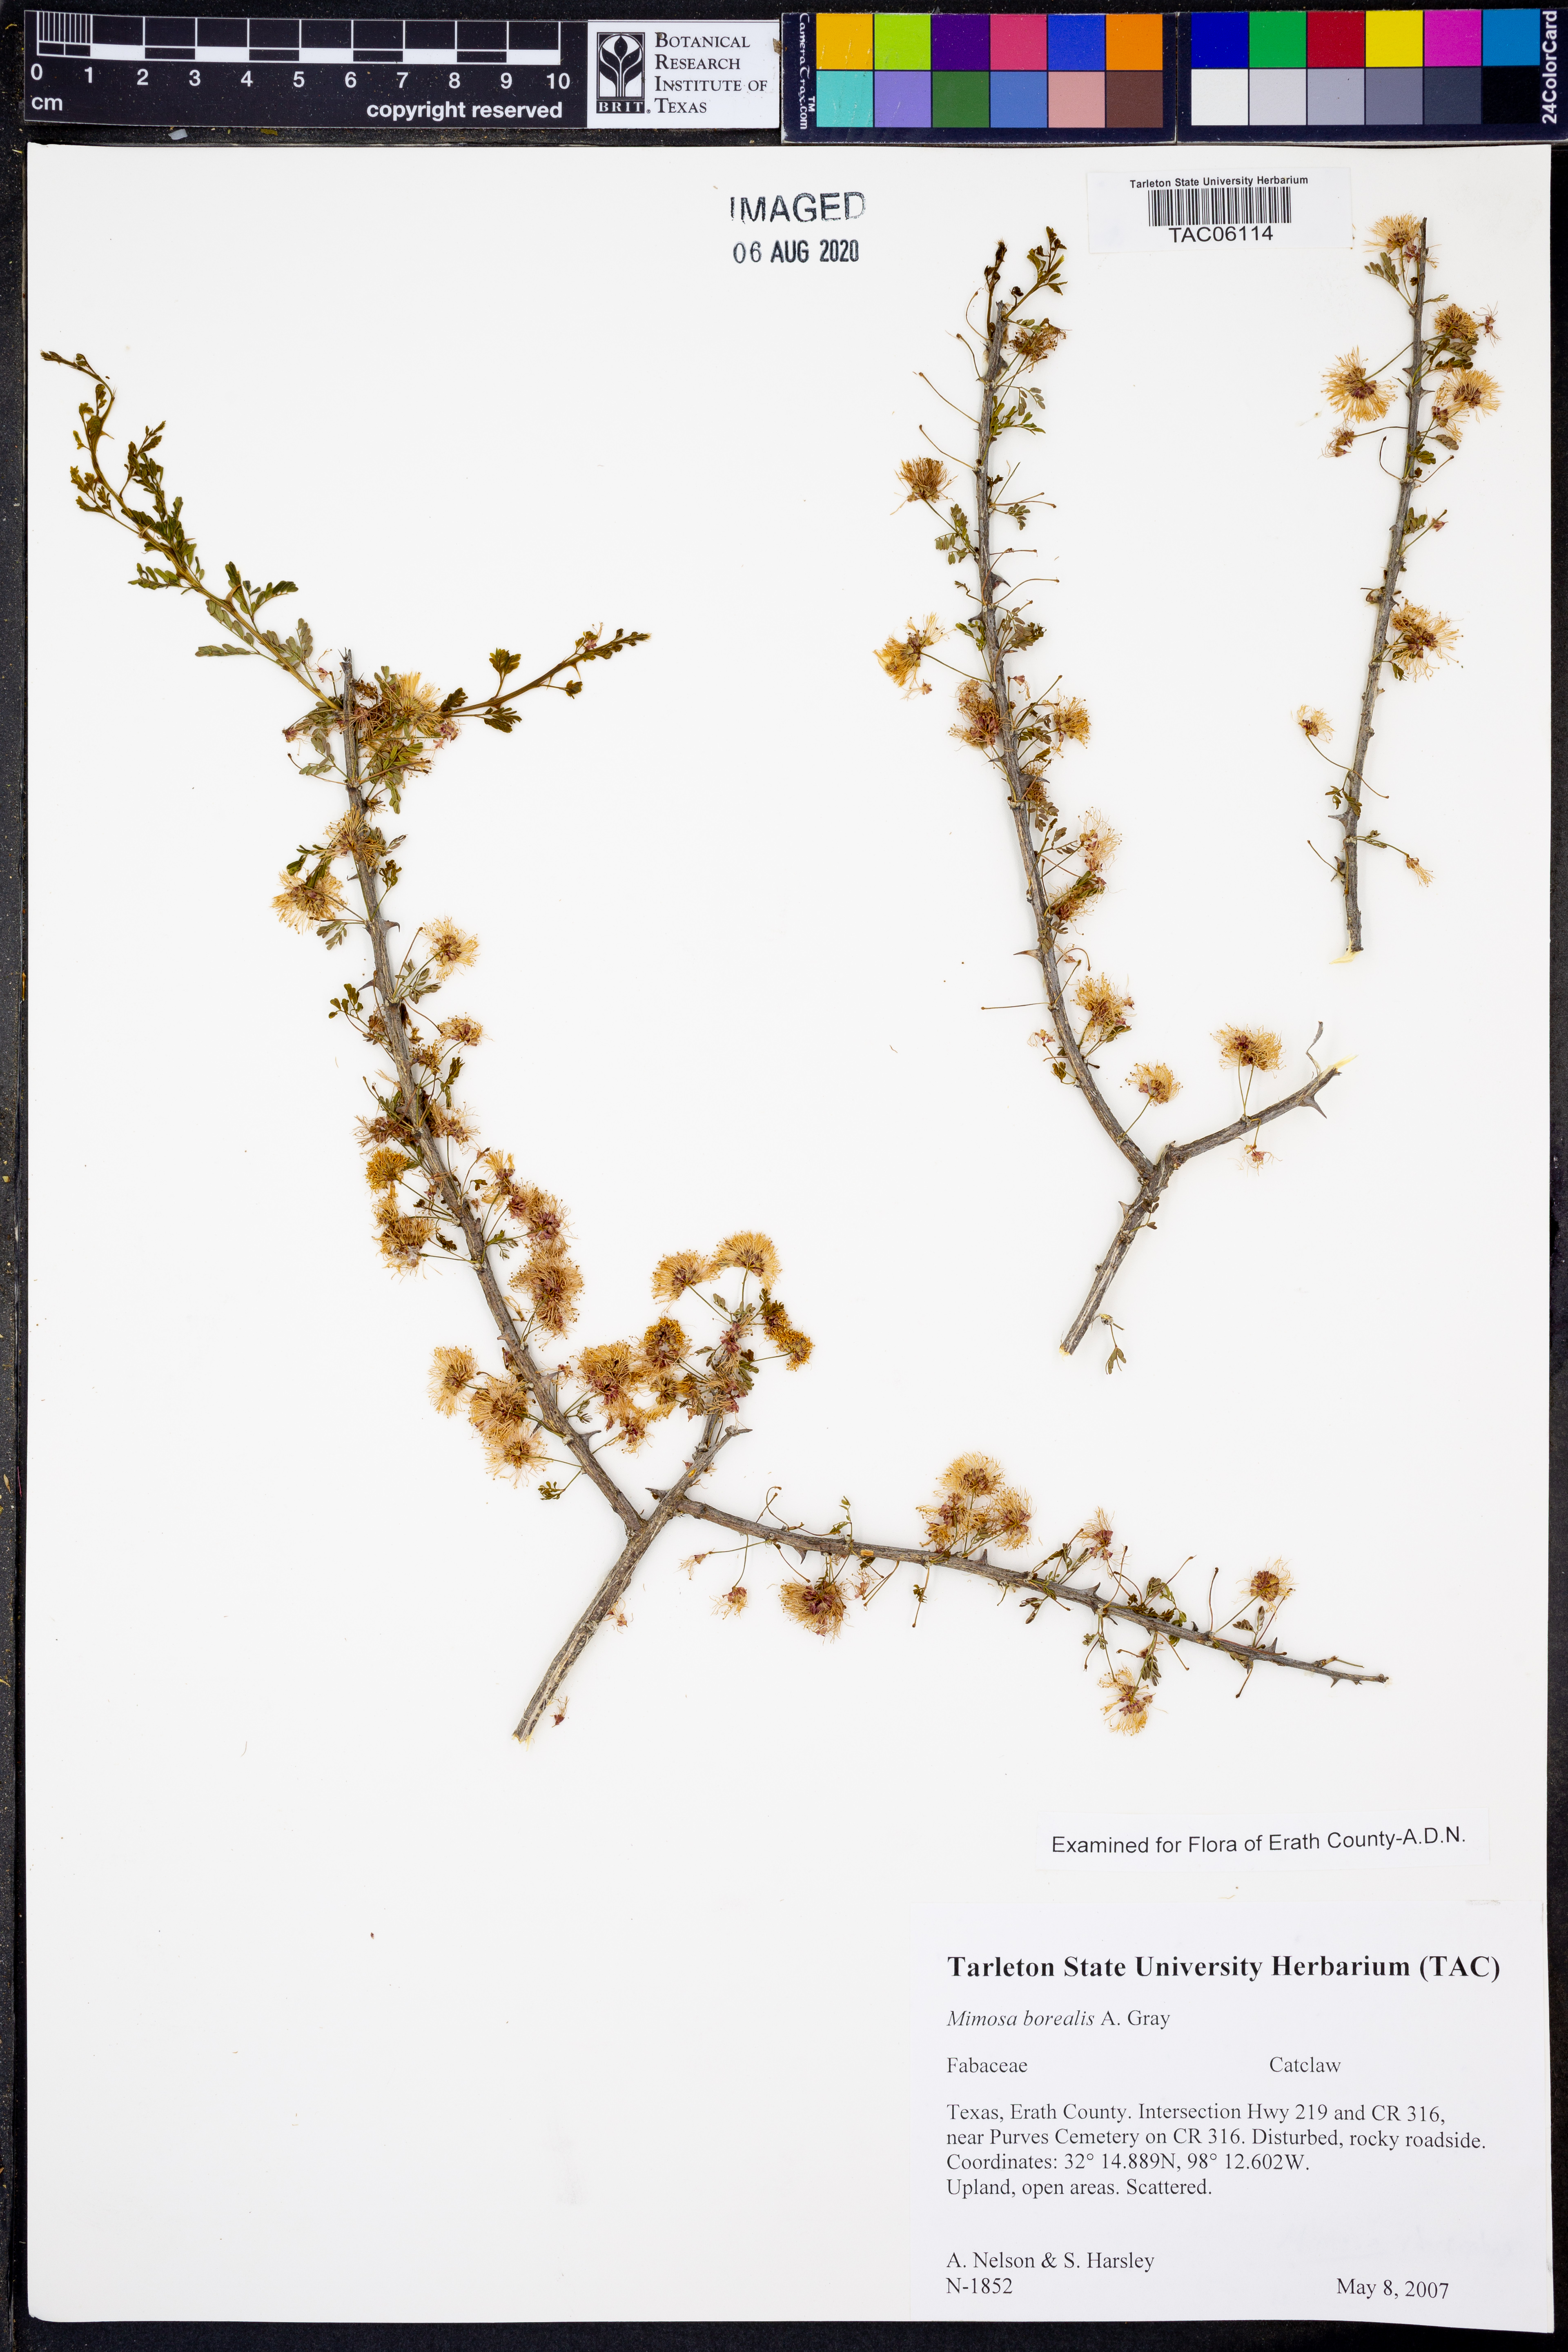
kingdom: Plantae
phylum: Tracheophyta
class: Magnoliopsida
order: Fabales
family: Fabaceae
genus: Mimosa
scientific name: Mimosa borealis
